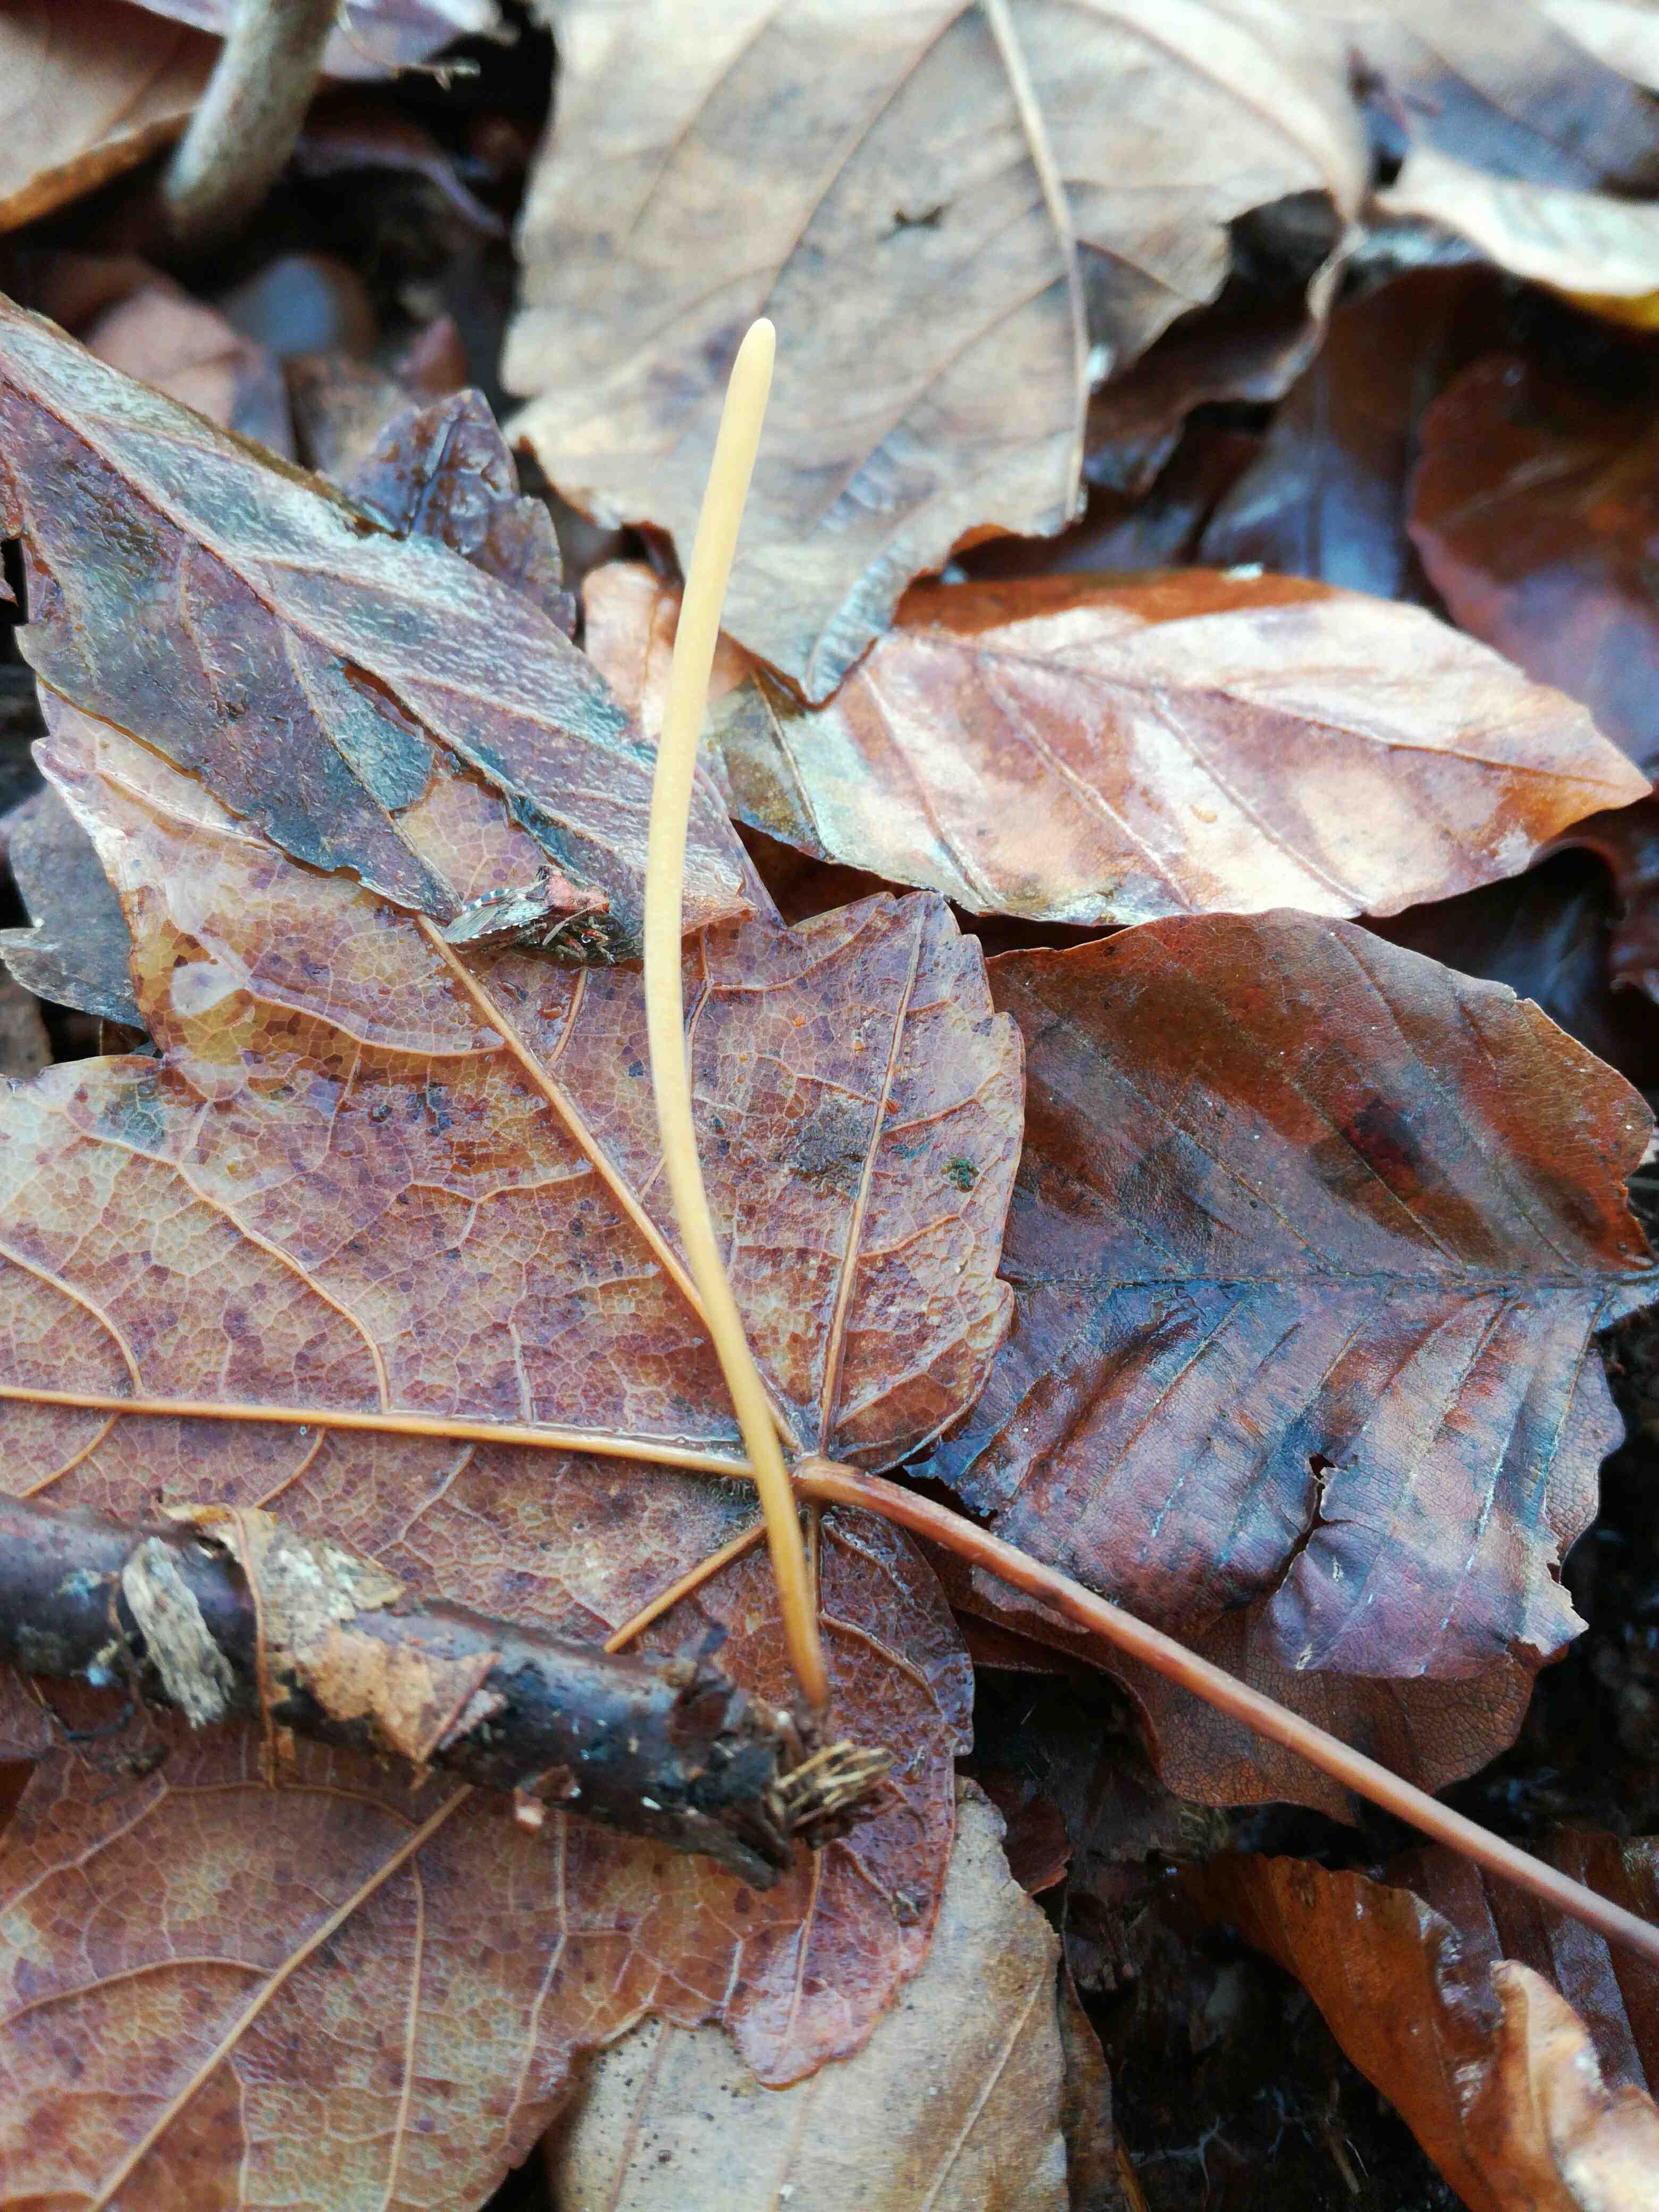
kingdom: Fungi
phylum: Basidiomycota
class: Agaricomycetes
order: Agaricales
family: Typhulaceae
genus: Typhula
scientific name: Typhula fistulosa
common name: pibet rørkølle
